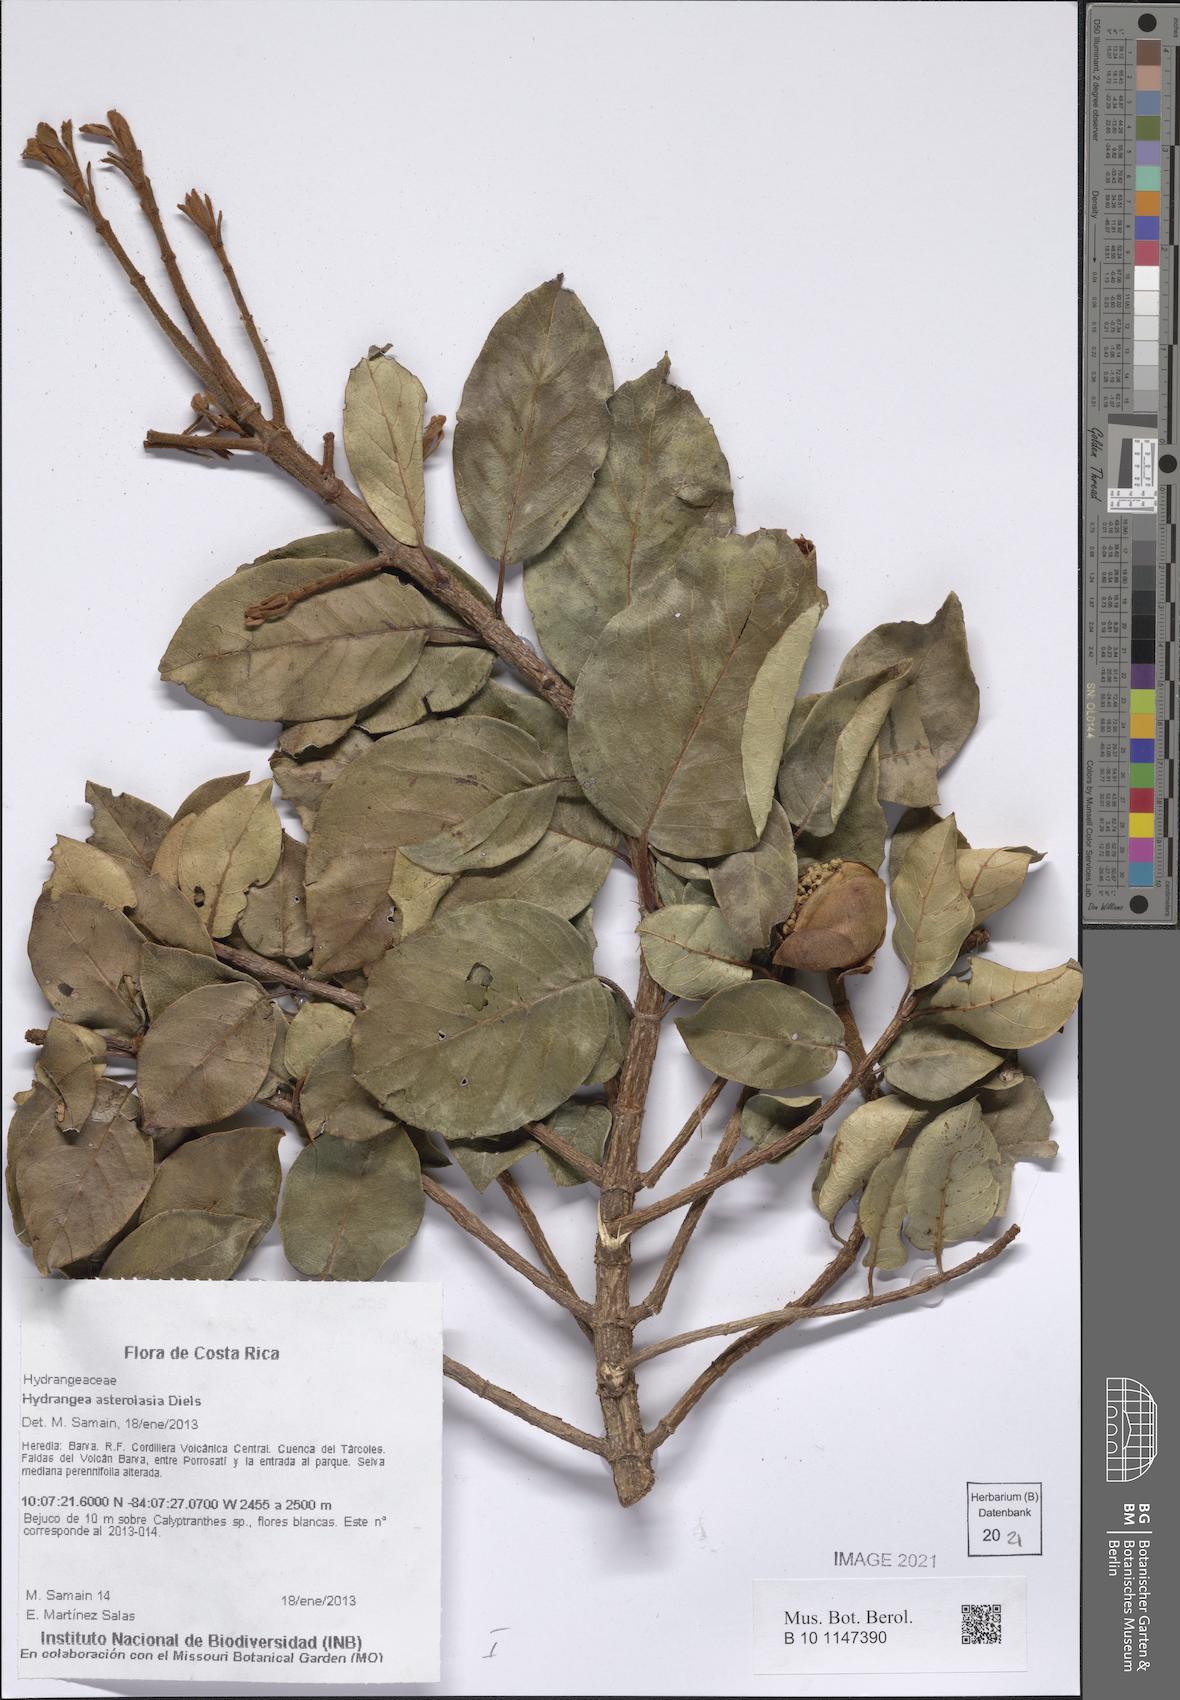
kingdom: Plantae
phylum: Tracheophyta
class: Magnoliopsida
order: Cornales
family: Hydrangeaceae
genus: Hydrangea
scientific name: Hydrangea asterolasia
